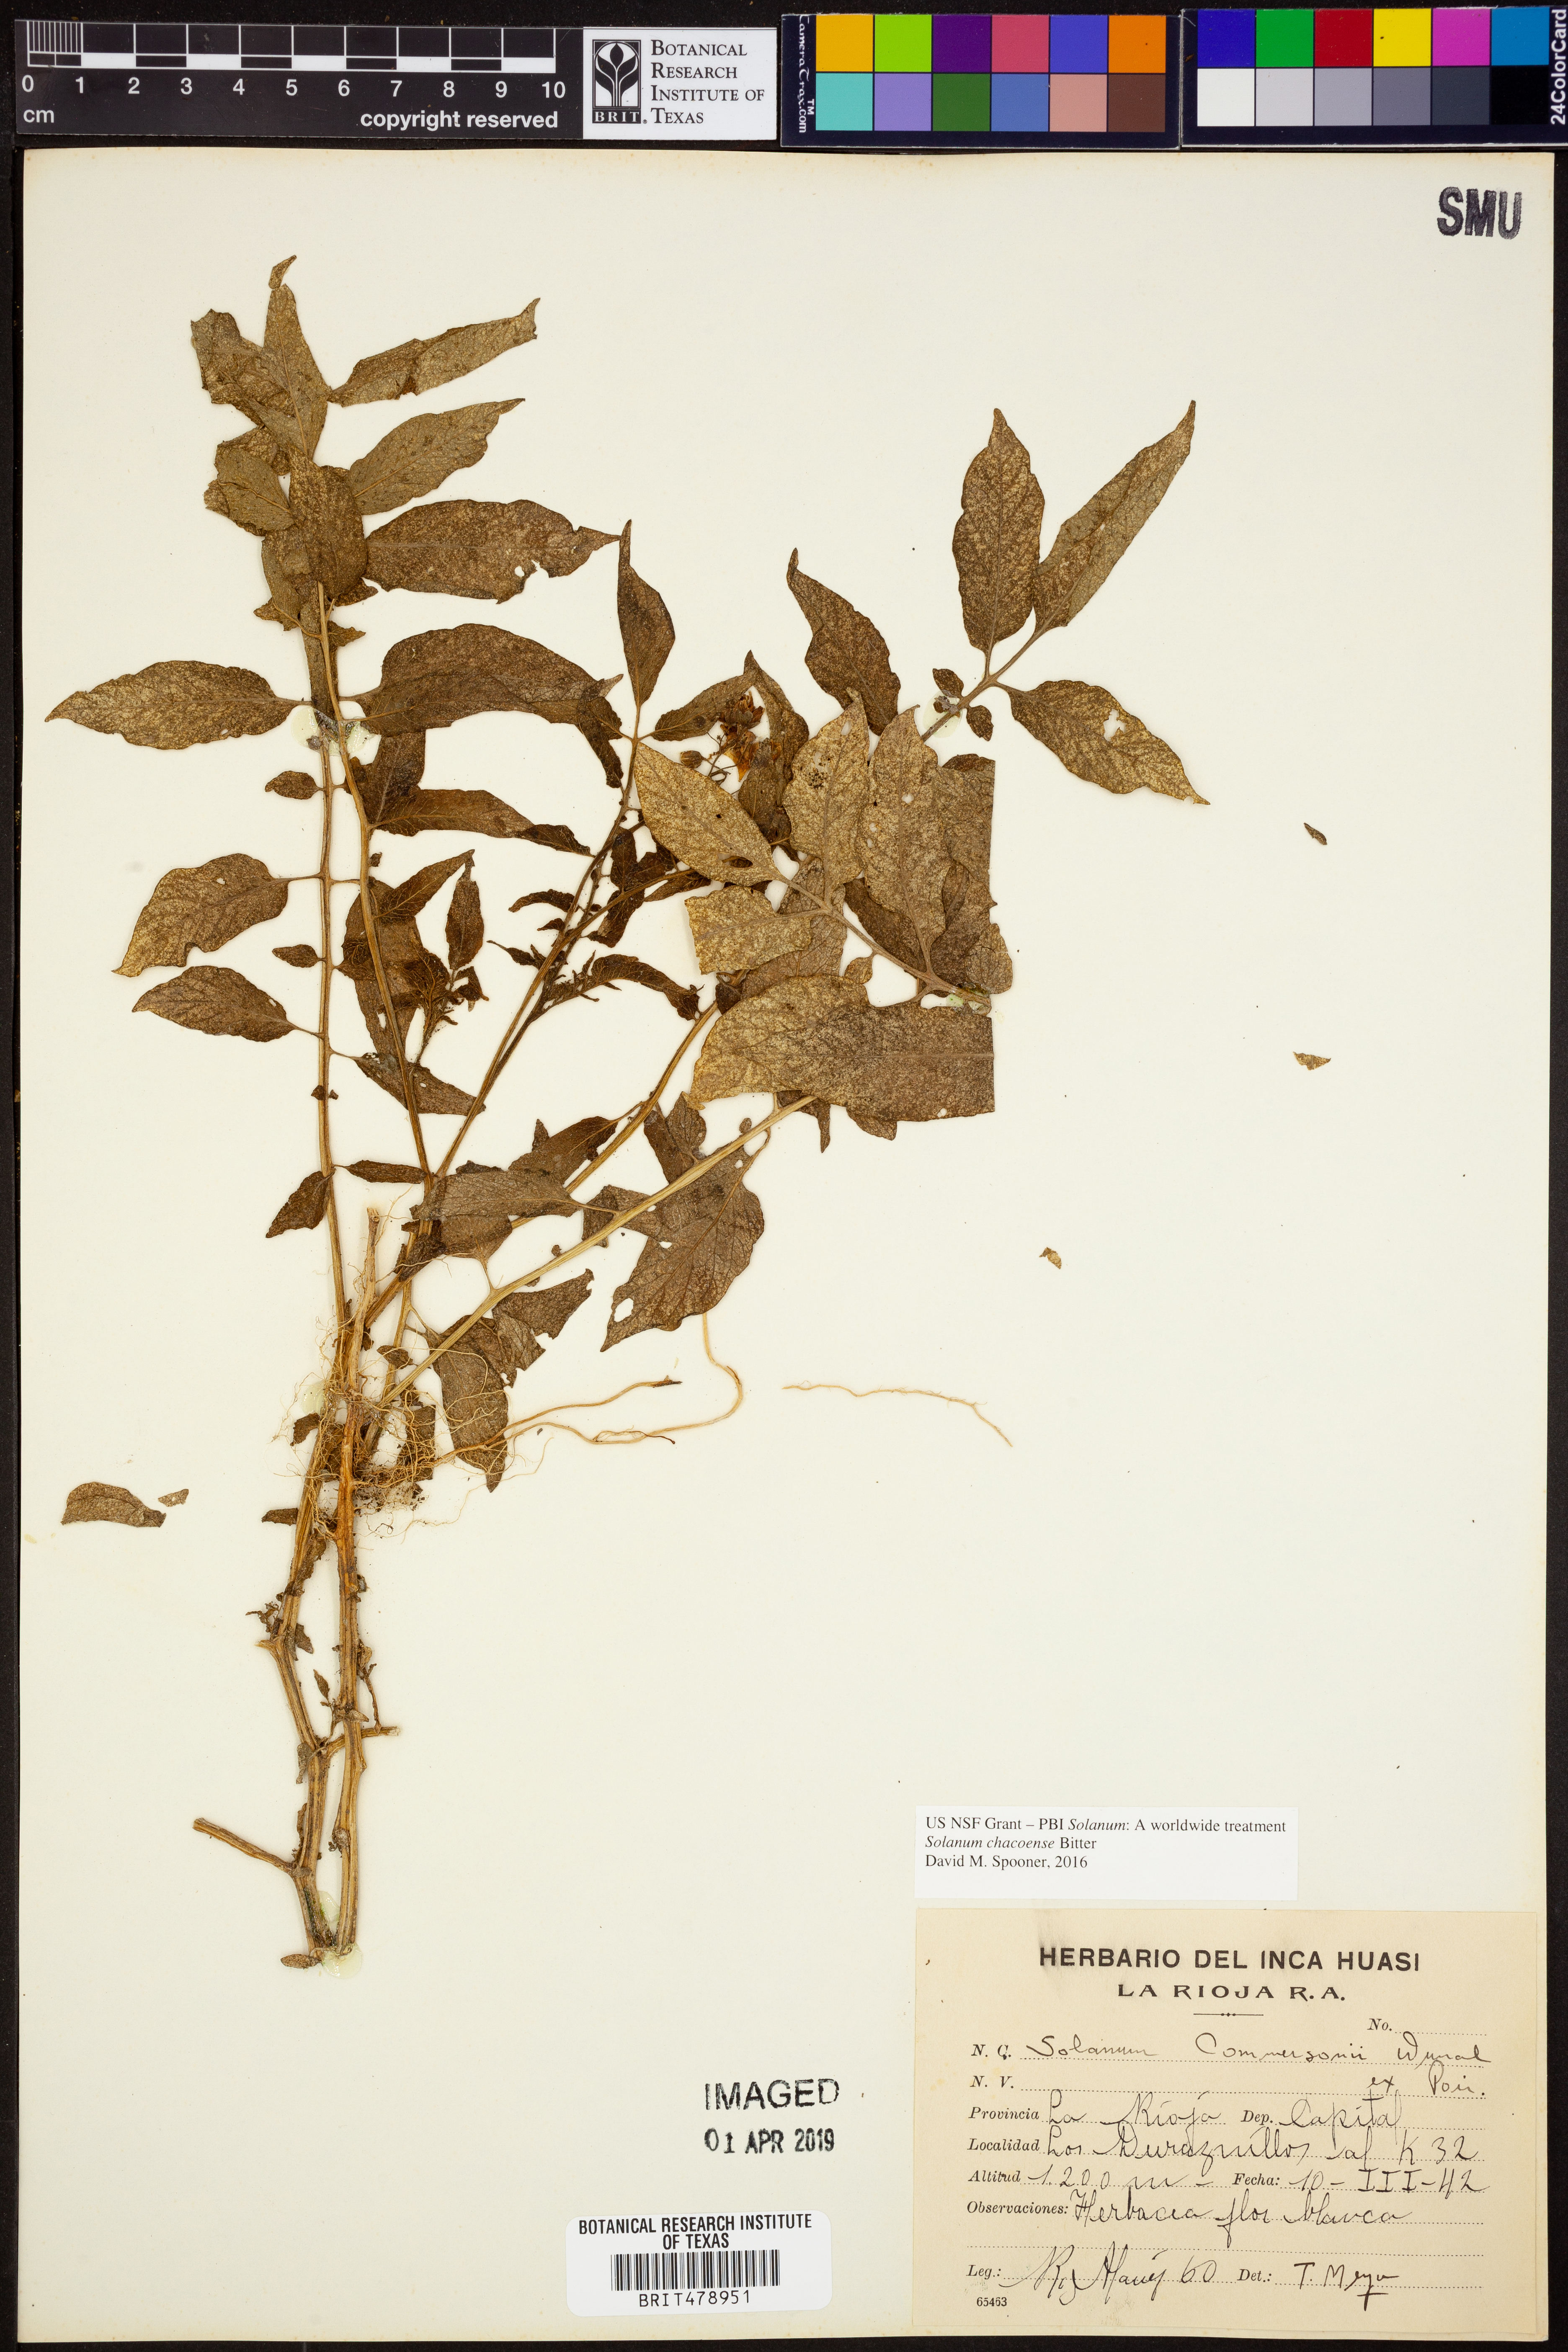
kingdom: Plantae
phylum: Tracheophyta
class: Magnoliopsida
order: Solanales
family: Solanaceae
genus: Solanum
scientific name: Solanum chacoense
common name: Chaco potato
